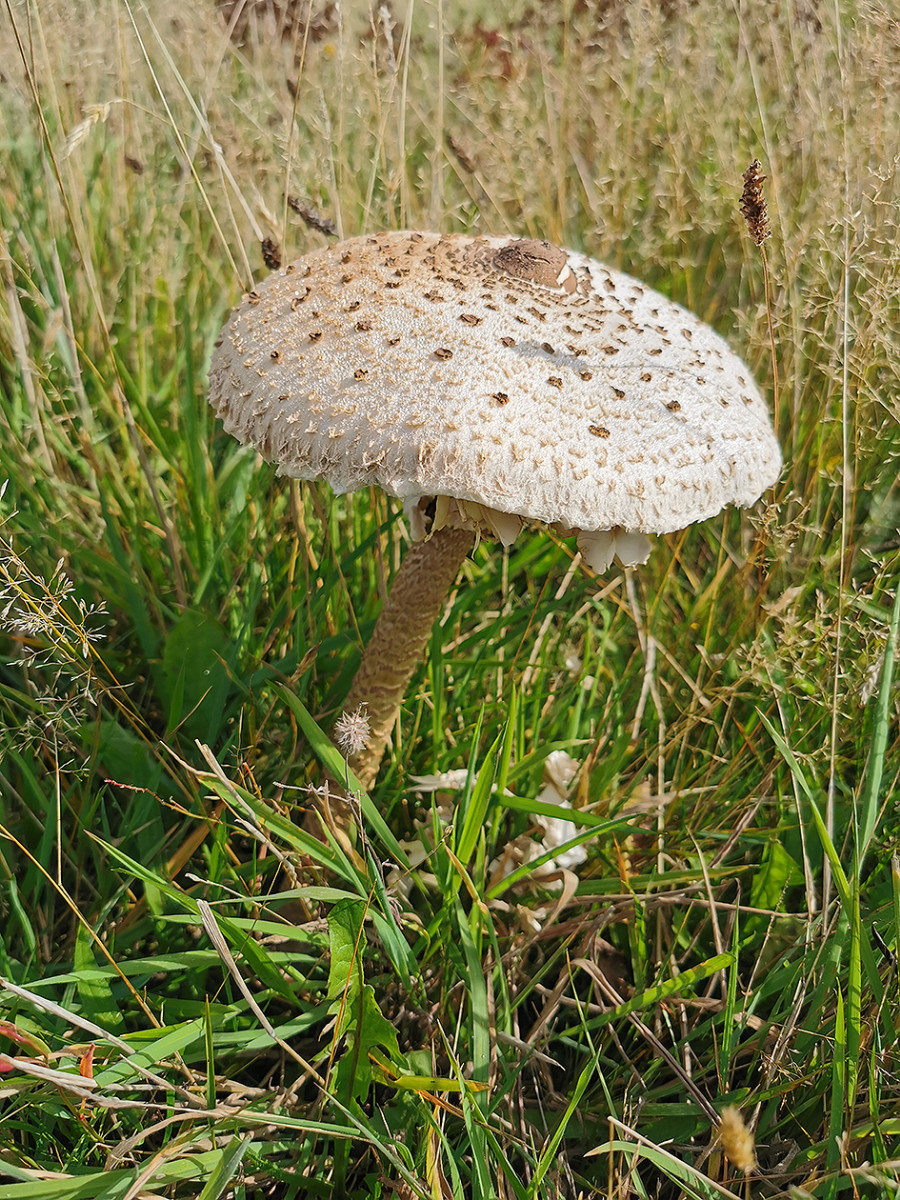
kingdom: Fungi
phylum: Basidiomycota
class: Agaricomycetes
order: Agaricales
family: Agaricaceae
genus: Macrolepiota
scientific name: Macrolepiota procera
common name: stor kæmpeparasolhat
